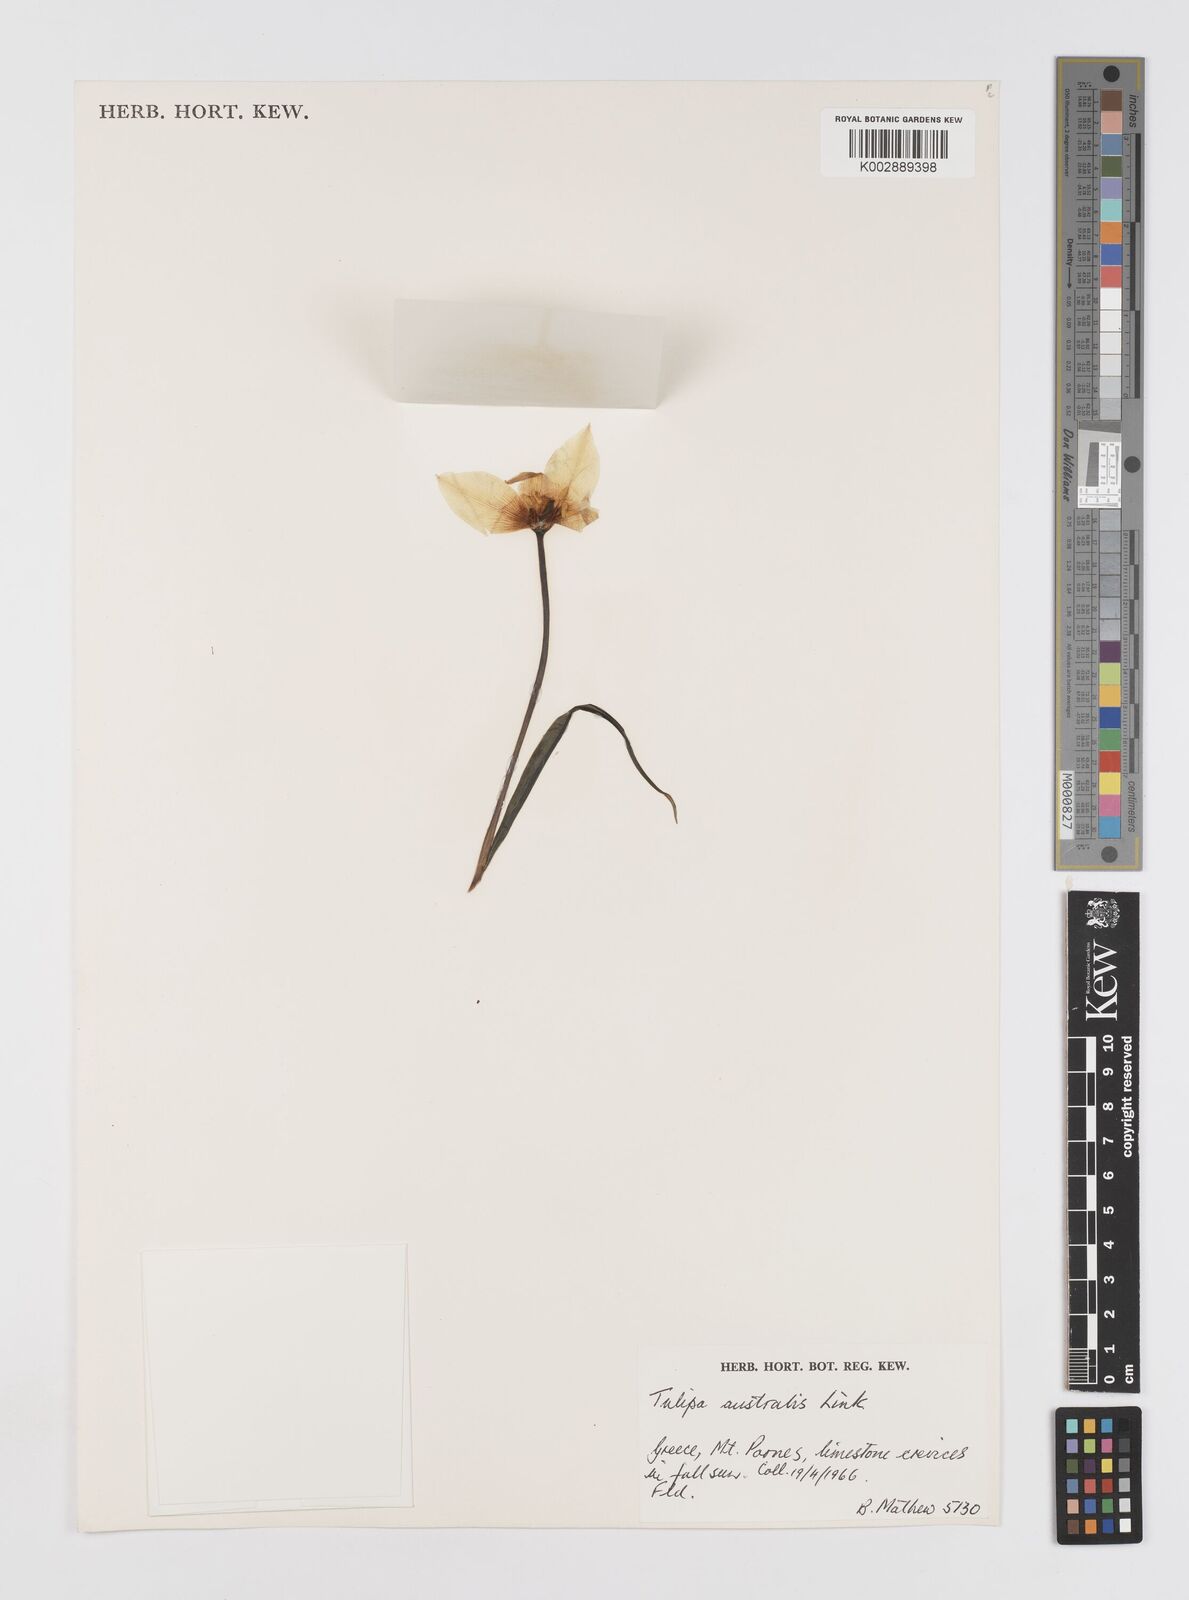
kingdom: Plantae
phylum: Tracheophyta
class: Liliopsida
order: Liliales
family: Liliaceae
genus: Tulipa
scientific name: Tulipa sylvestris
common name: Wild tulip
